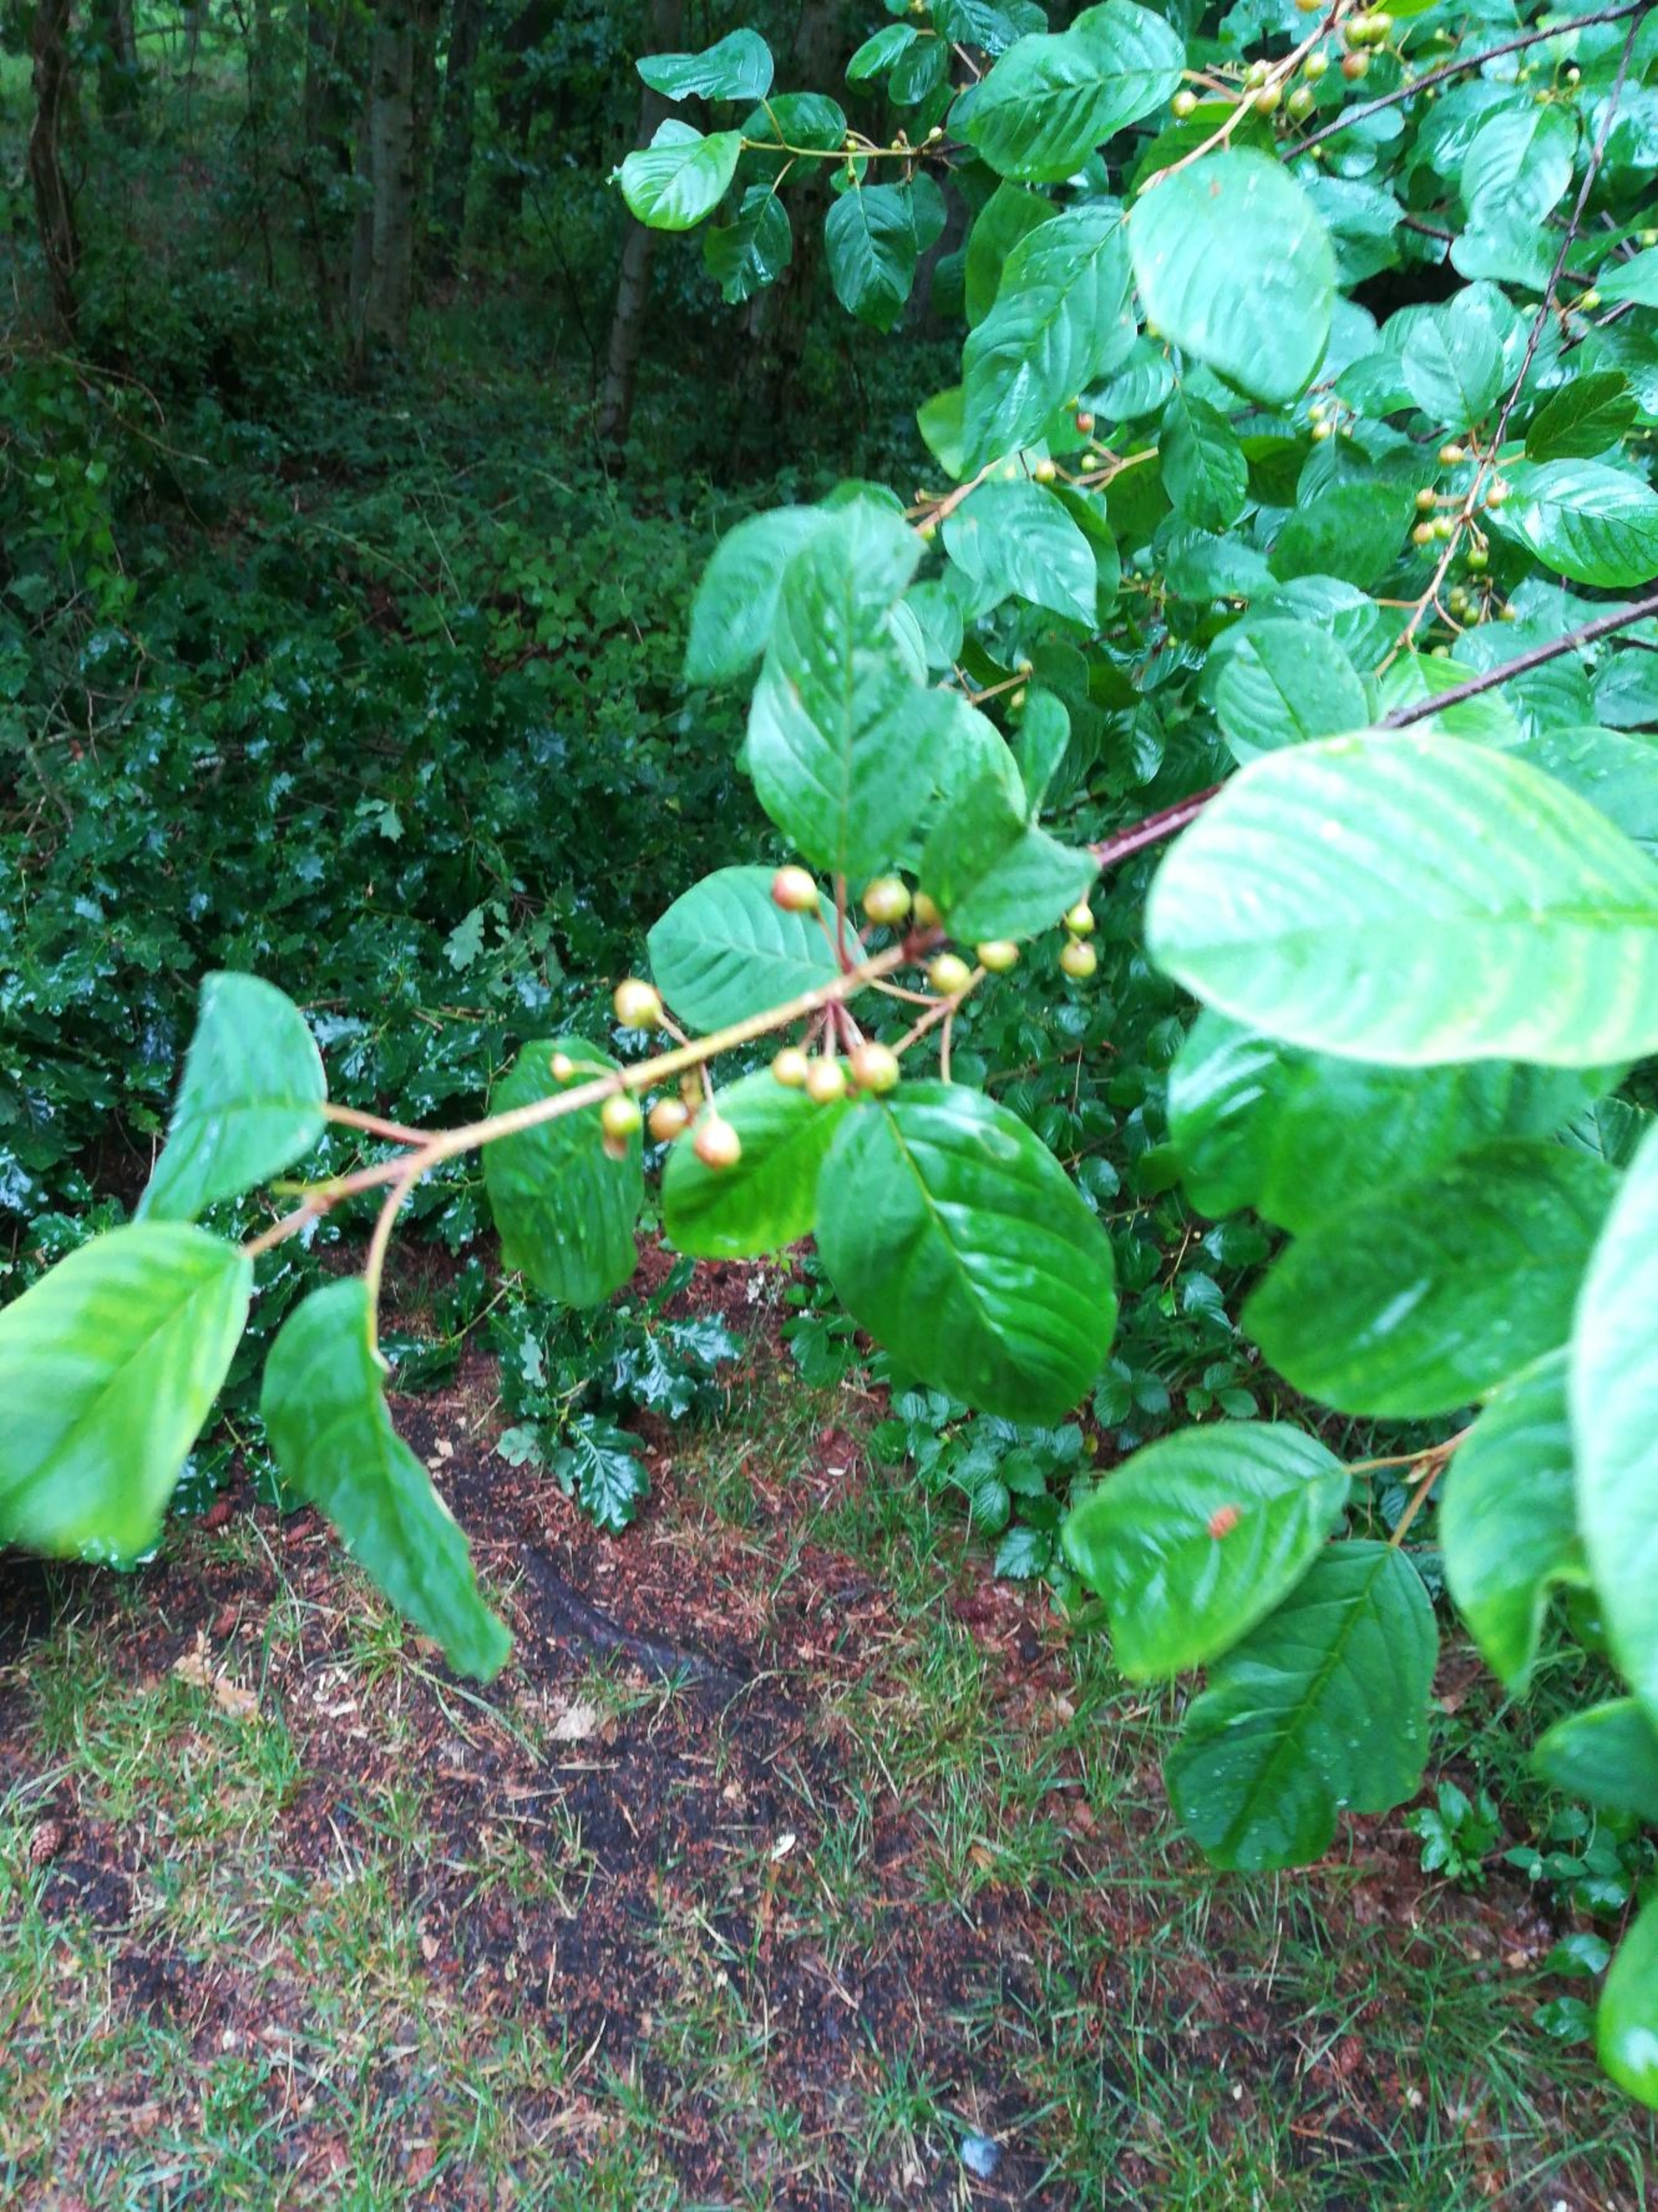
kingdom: Plantae
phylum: Tracheophyta
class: Magnoliopsida
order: Rosales
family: Rhamnaceae
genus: Frangula
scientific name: Frangula alnus
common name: Tørst
